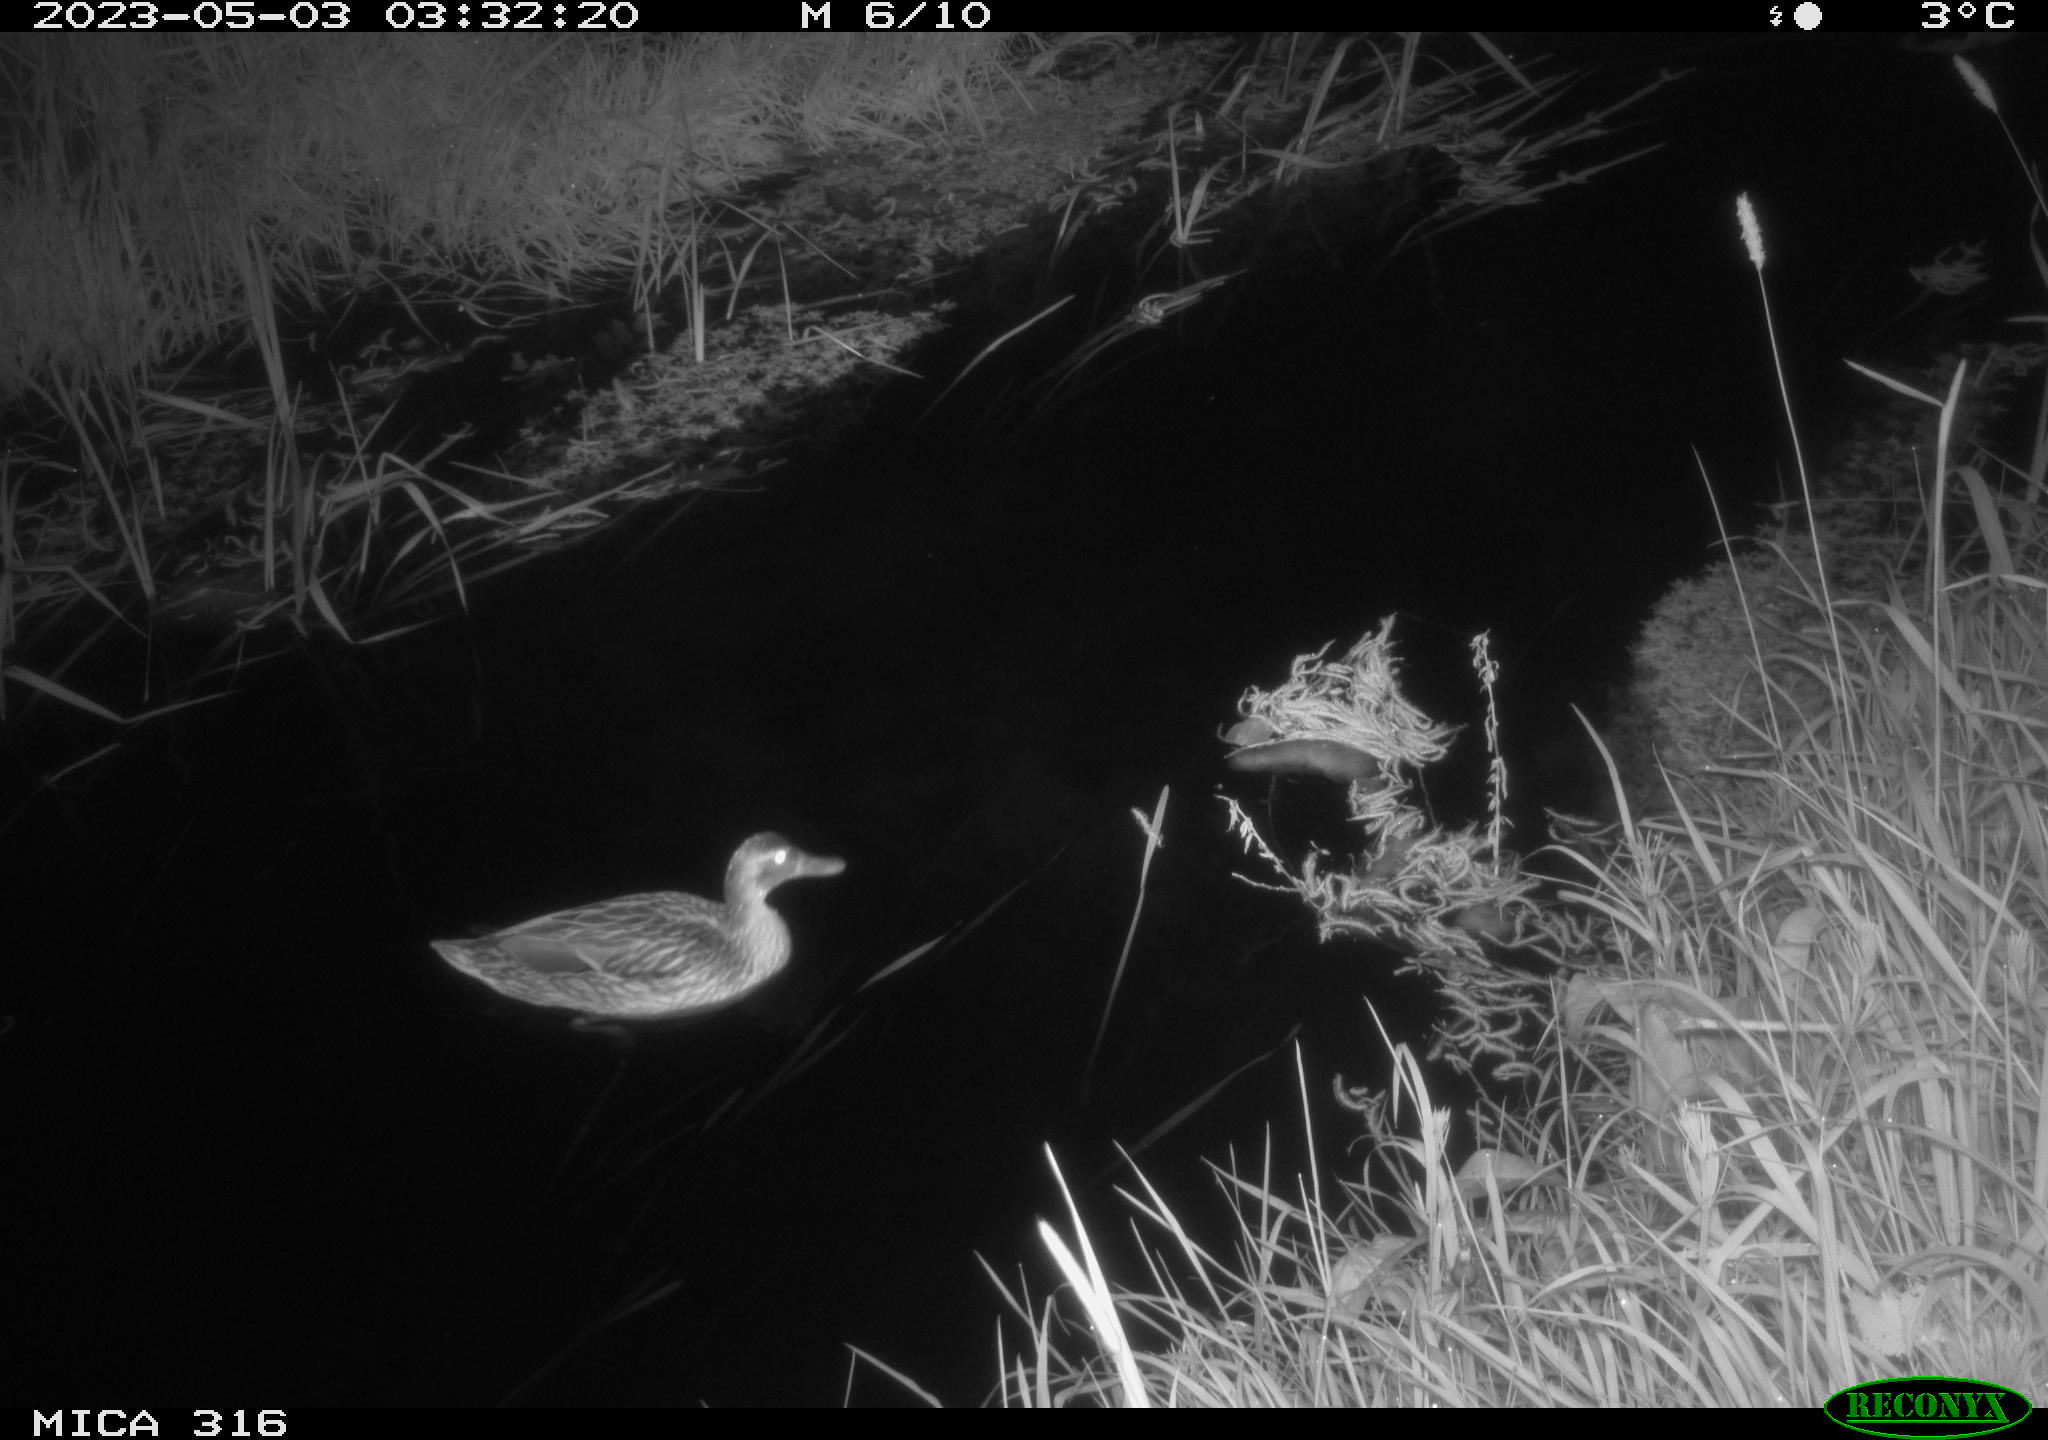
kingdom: Animalia
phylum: Chordata
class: Aves
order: Anseriformes
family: Anatidae
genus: Anas
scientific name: Anas
